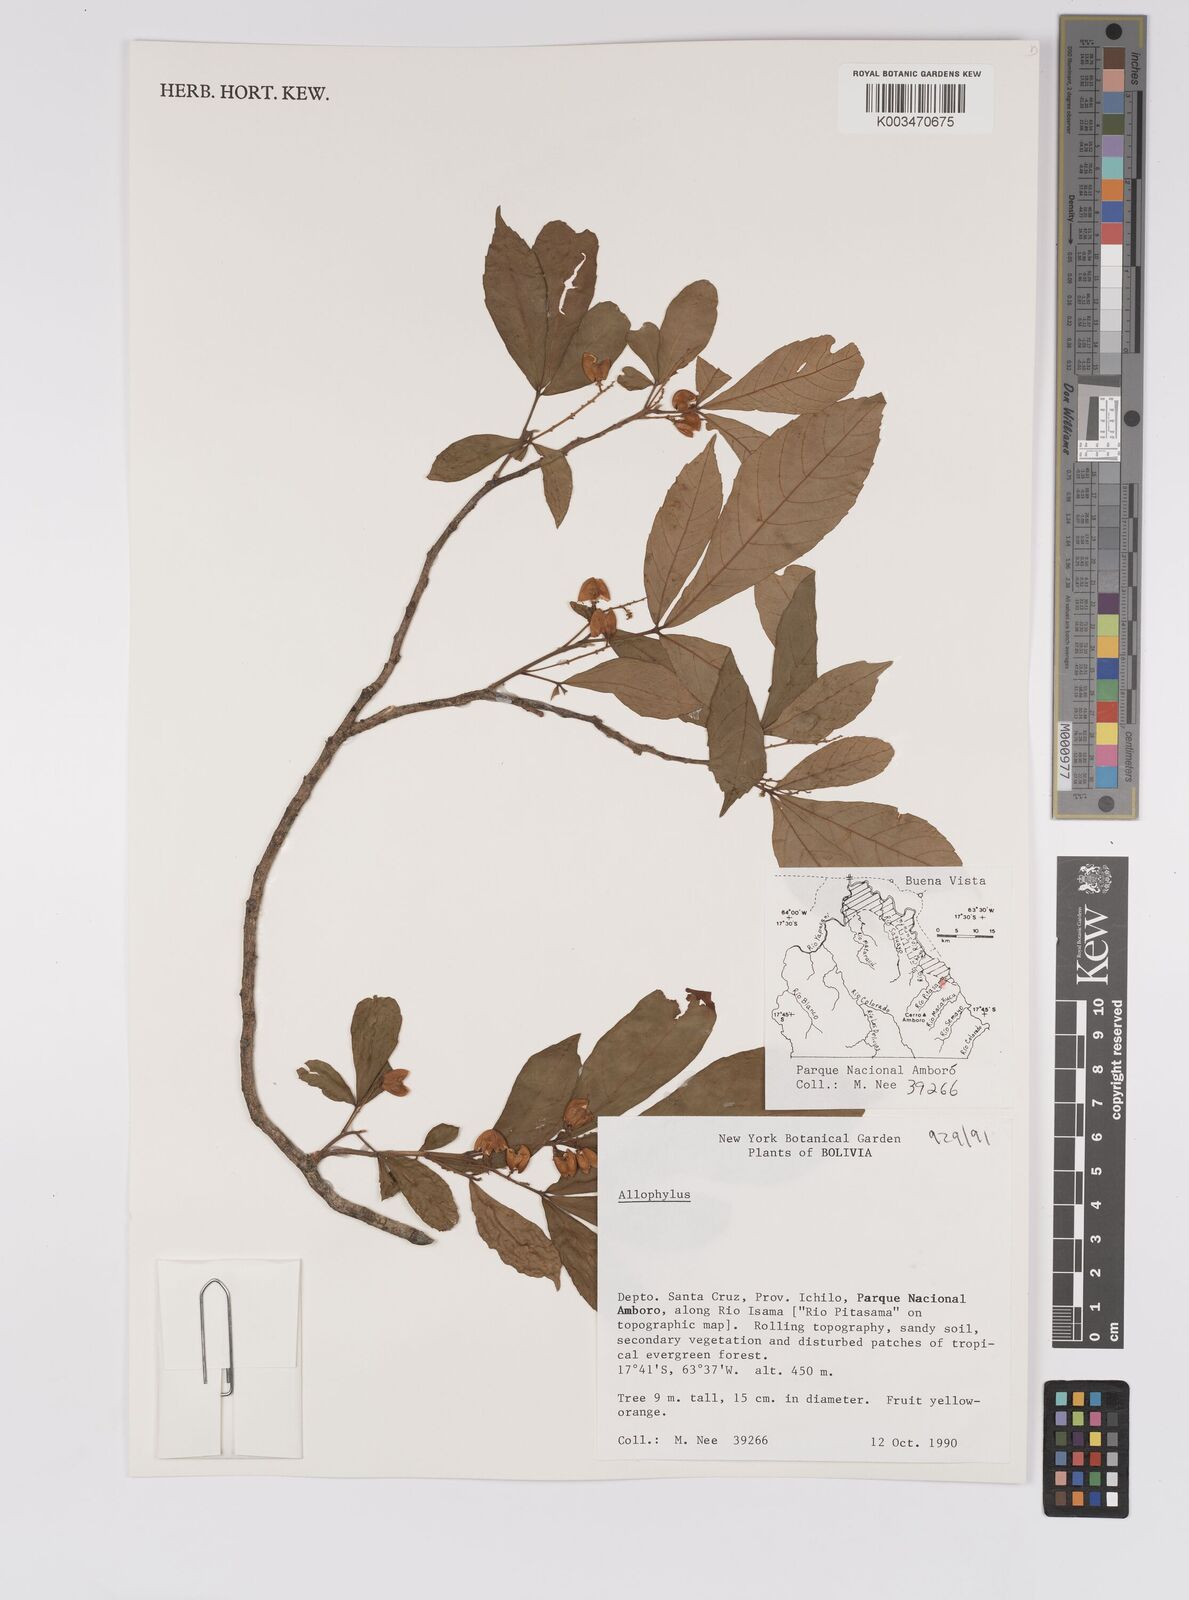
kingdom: Plantae
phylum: Tracheophyta
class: Magnoliopsida
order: Sapindales
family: Sapindaceae
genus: Allophylus
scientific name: Allophylus
